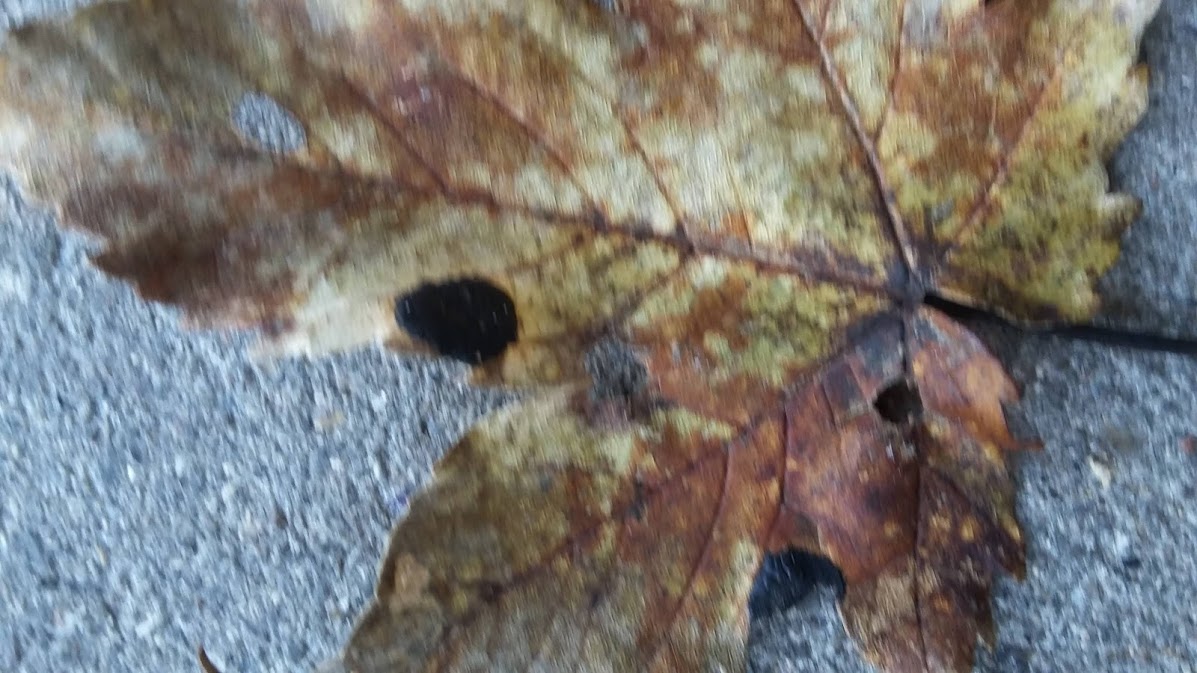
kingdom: Fungi
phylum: Ascomycota
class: Leotiomycetes
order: Rhytismatales
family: Rhytismataceae
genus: Rhytisma
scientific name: Rhytisma acerinum
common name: ahorn-rynkeplet
